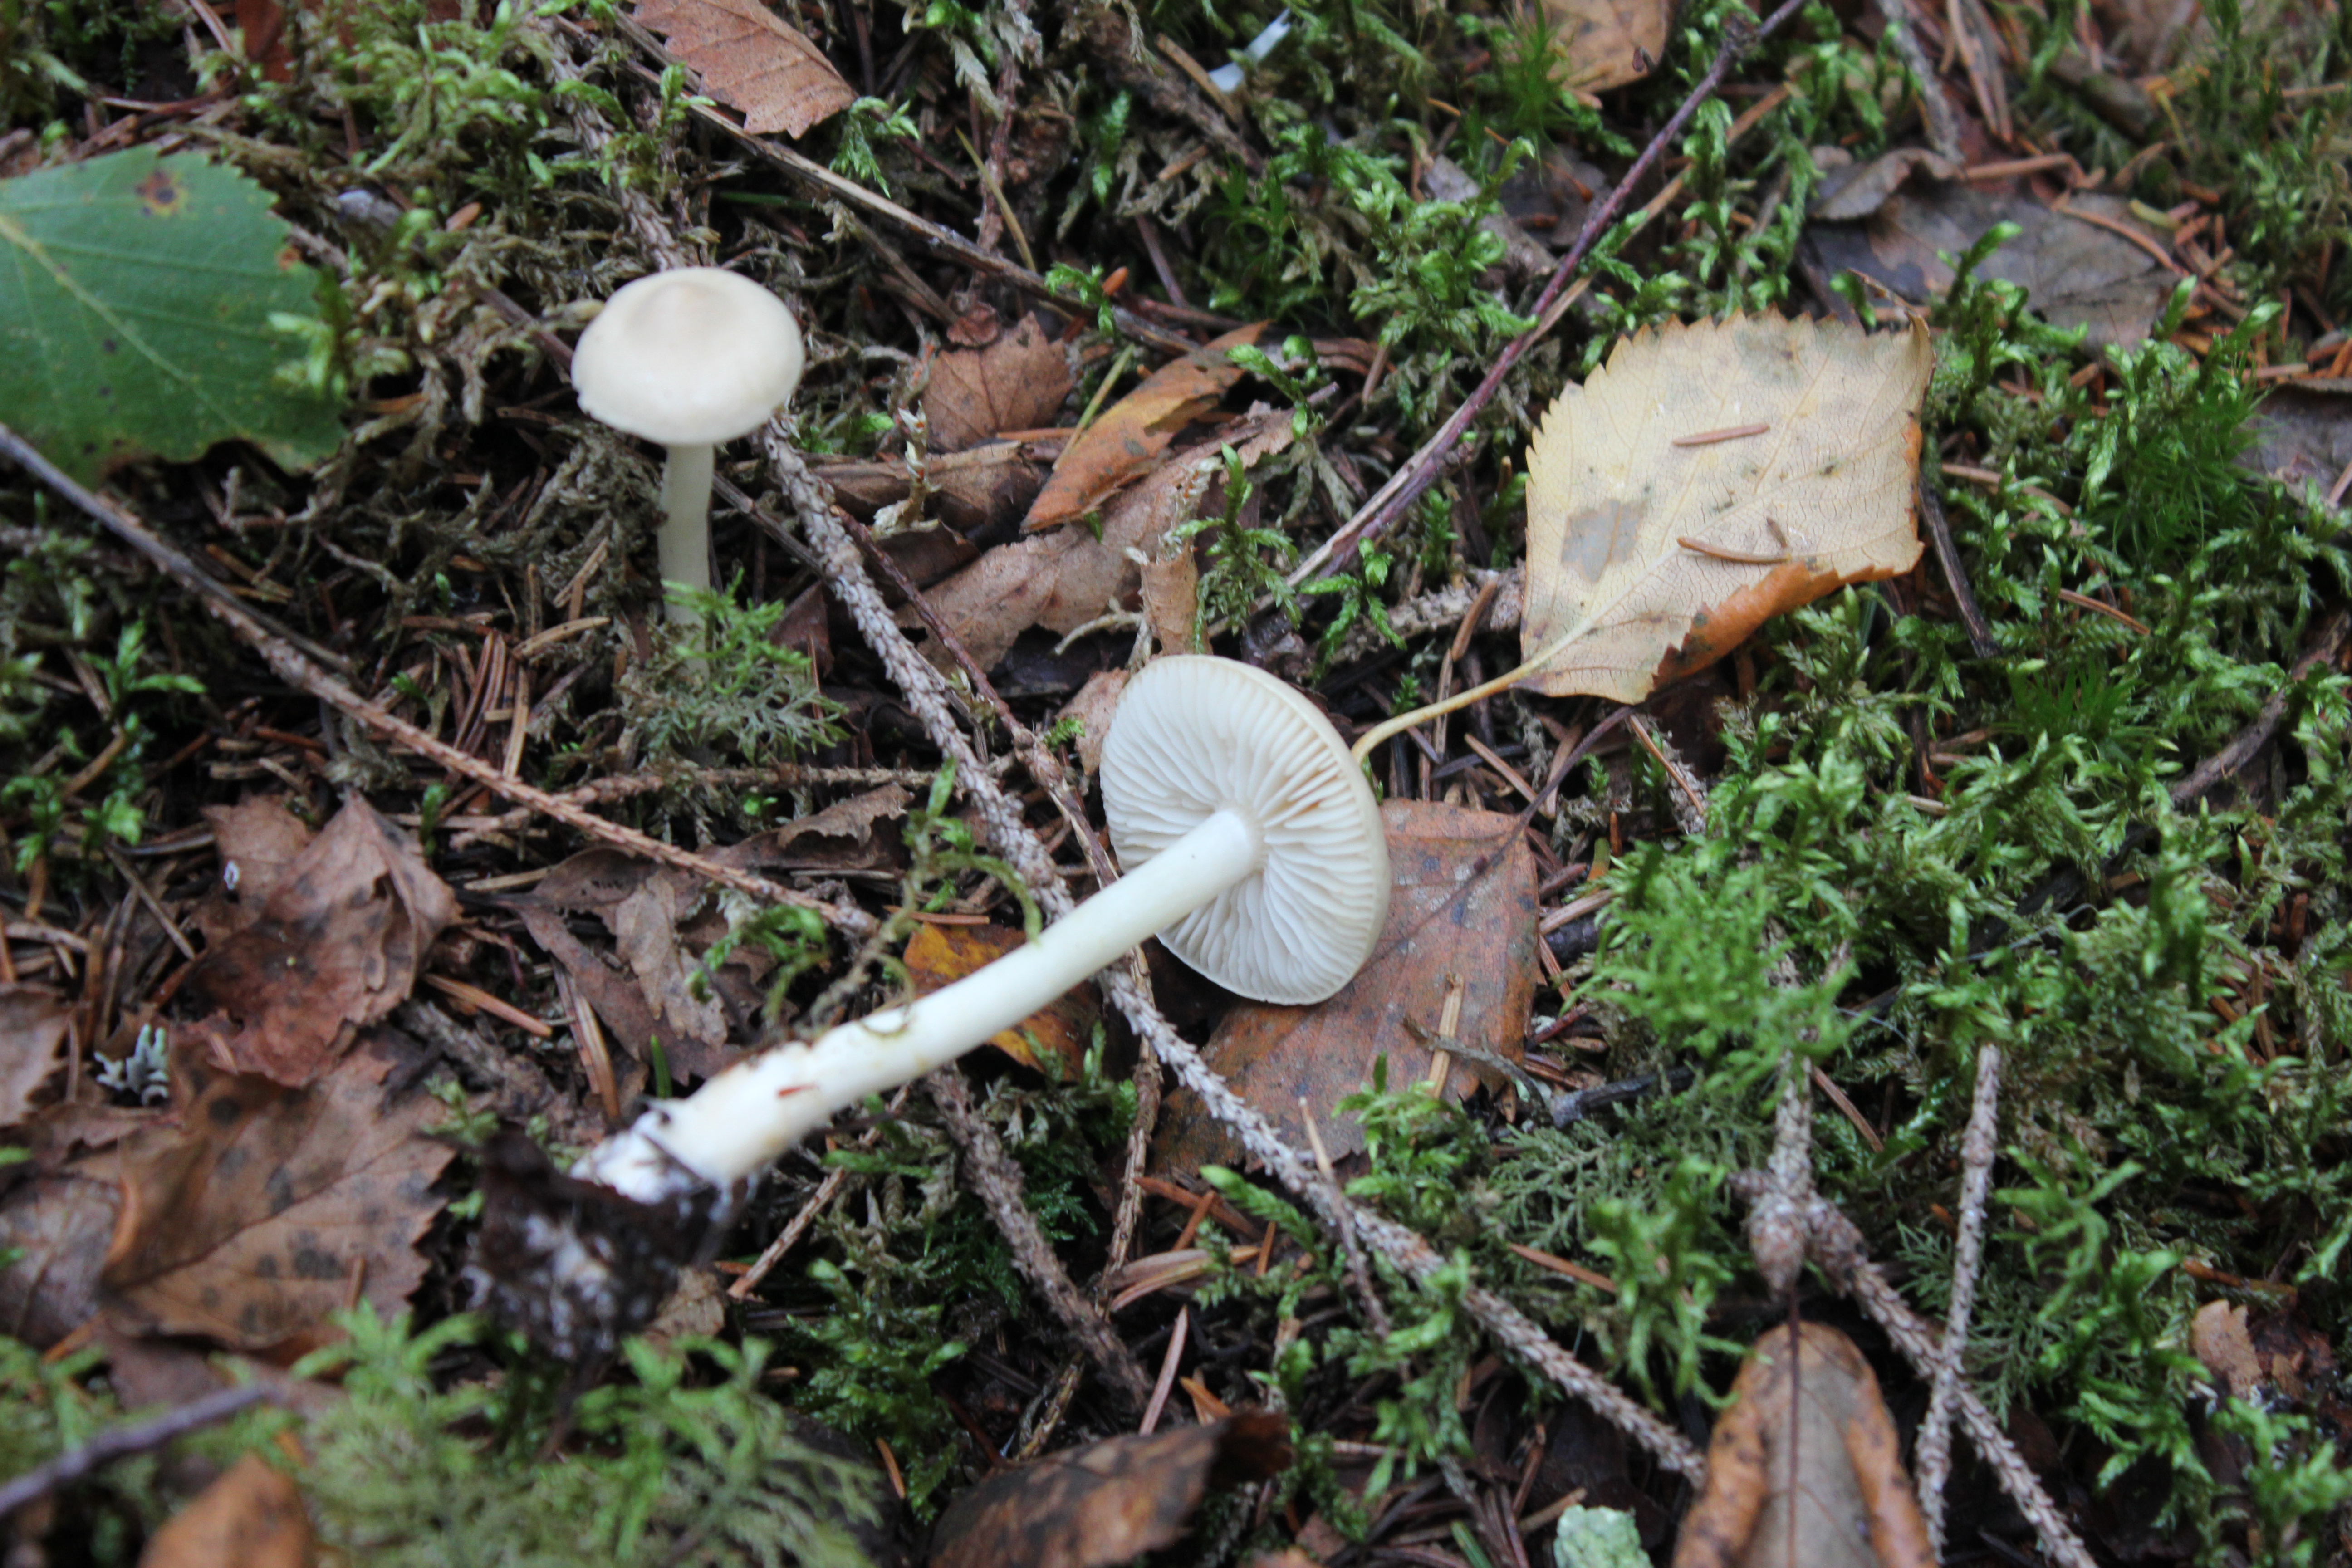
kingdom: Fungi
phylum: Basidiomycota
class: Agaricomycetes
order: Agaricales
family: Tricholomataceae
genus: Tricholoma
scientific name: Tricholoma inamoenum
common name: Gassy knight
